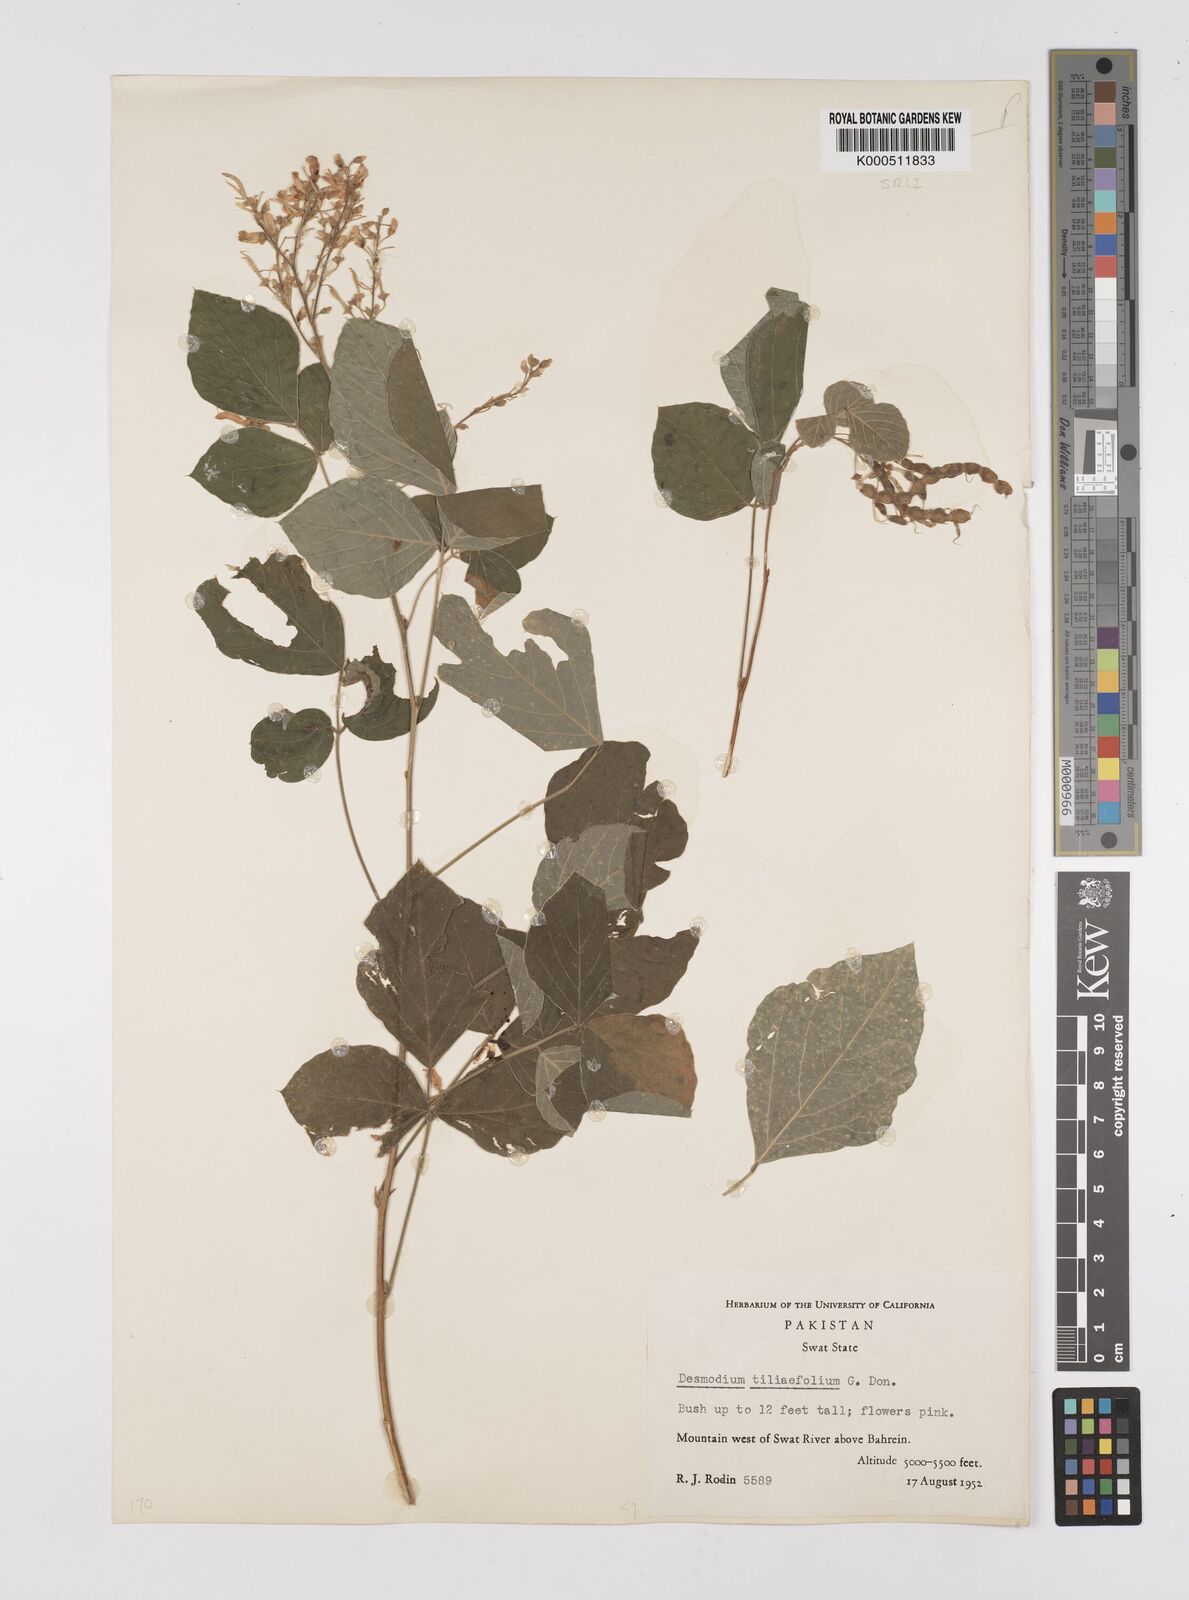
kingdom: Plantae
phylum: Tracheophyta
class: Magnoliopsida
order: Fabales
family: Fabaceae
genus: Sunhangia
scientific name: Sunhangia elegans
